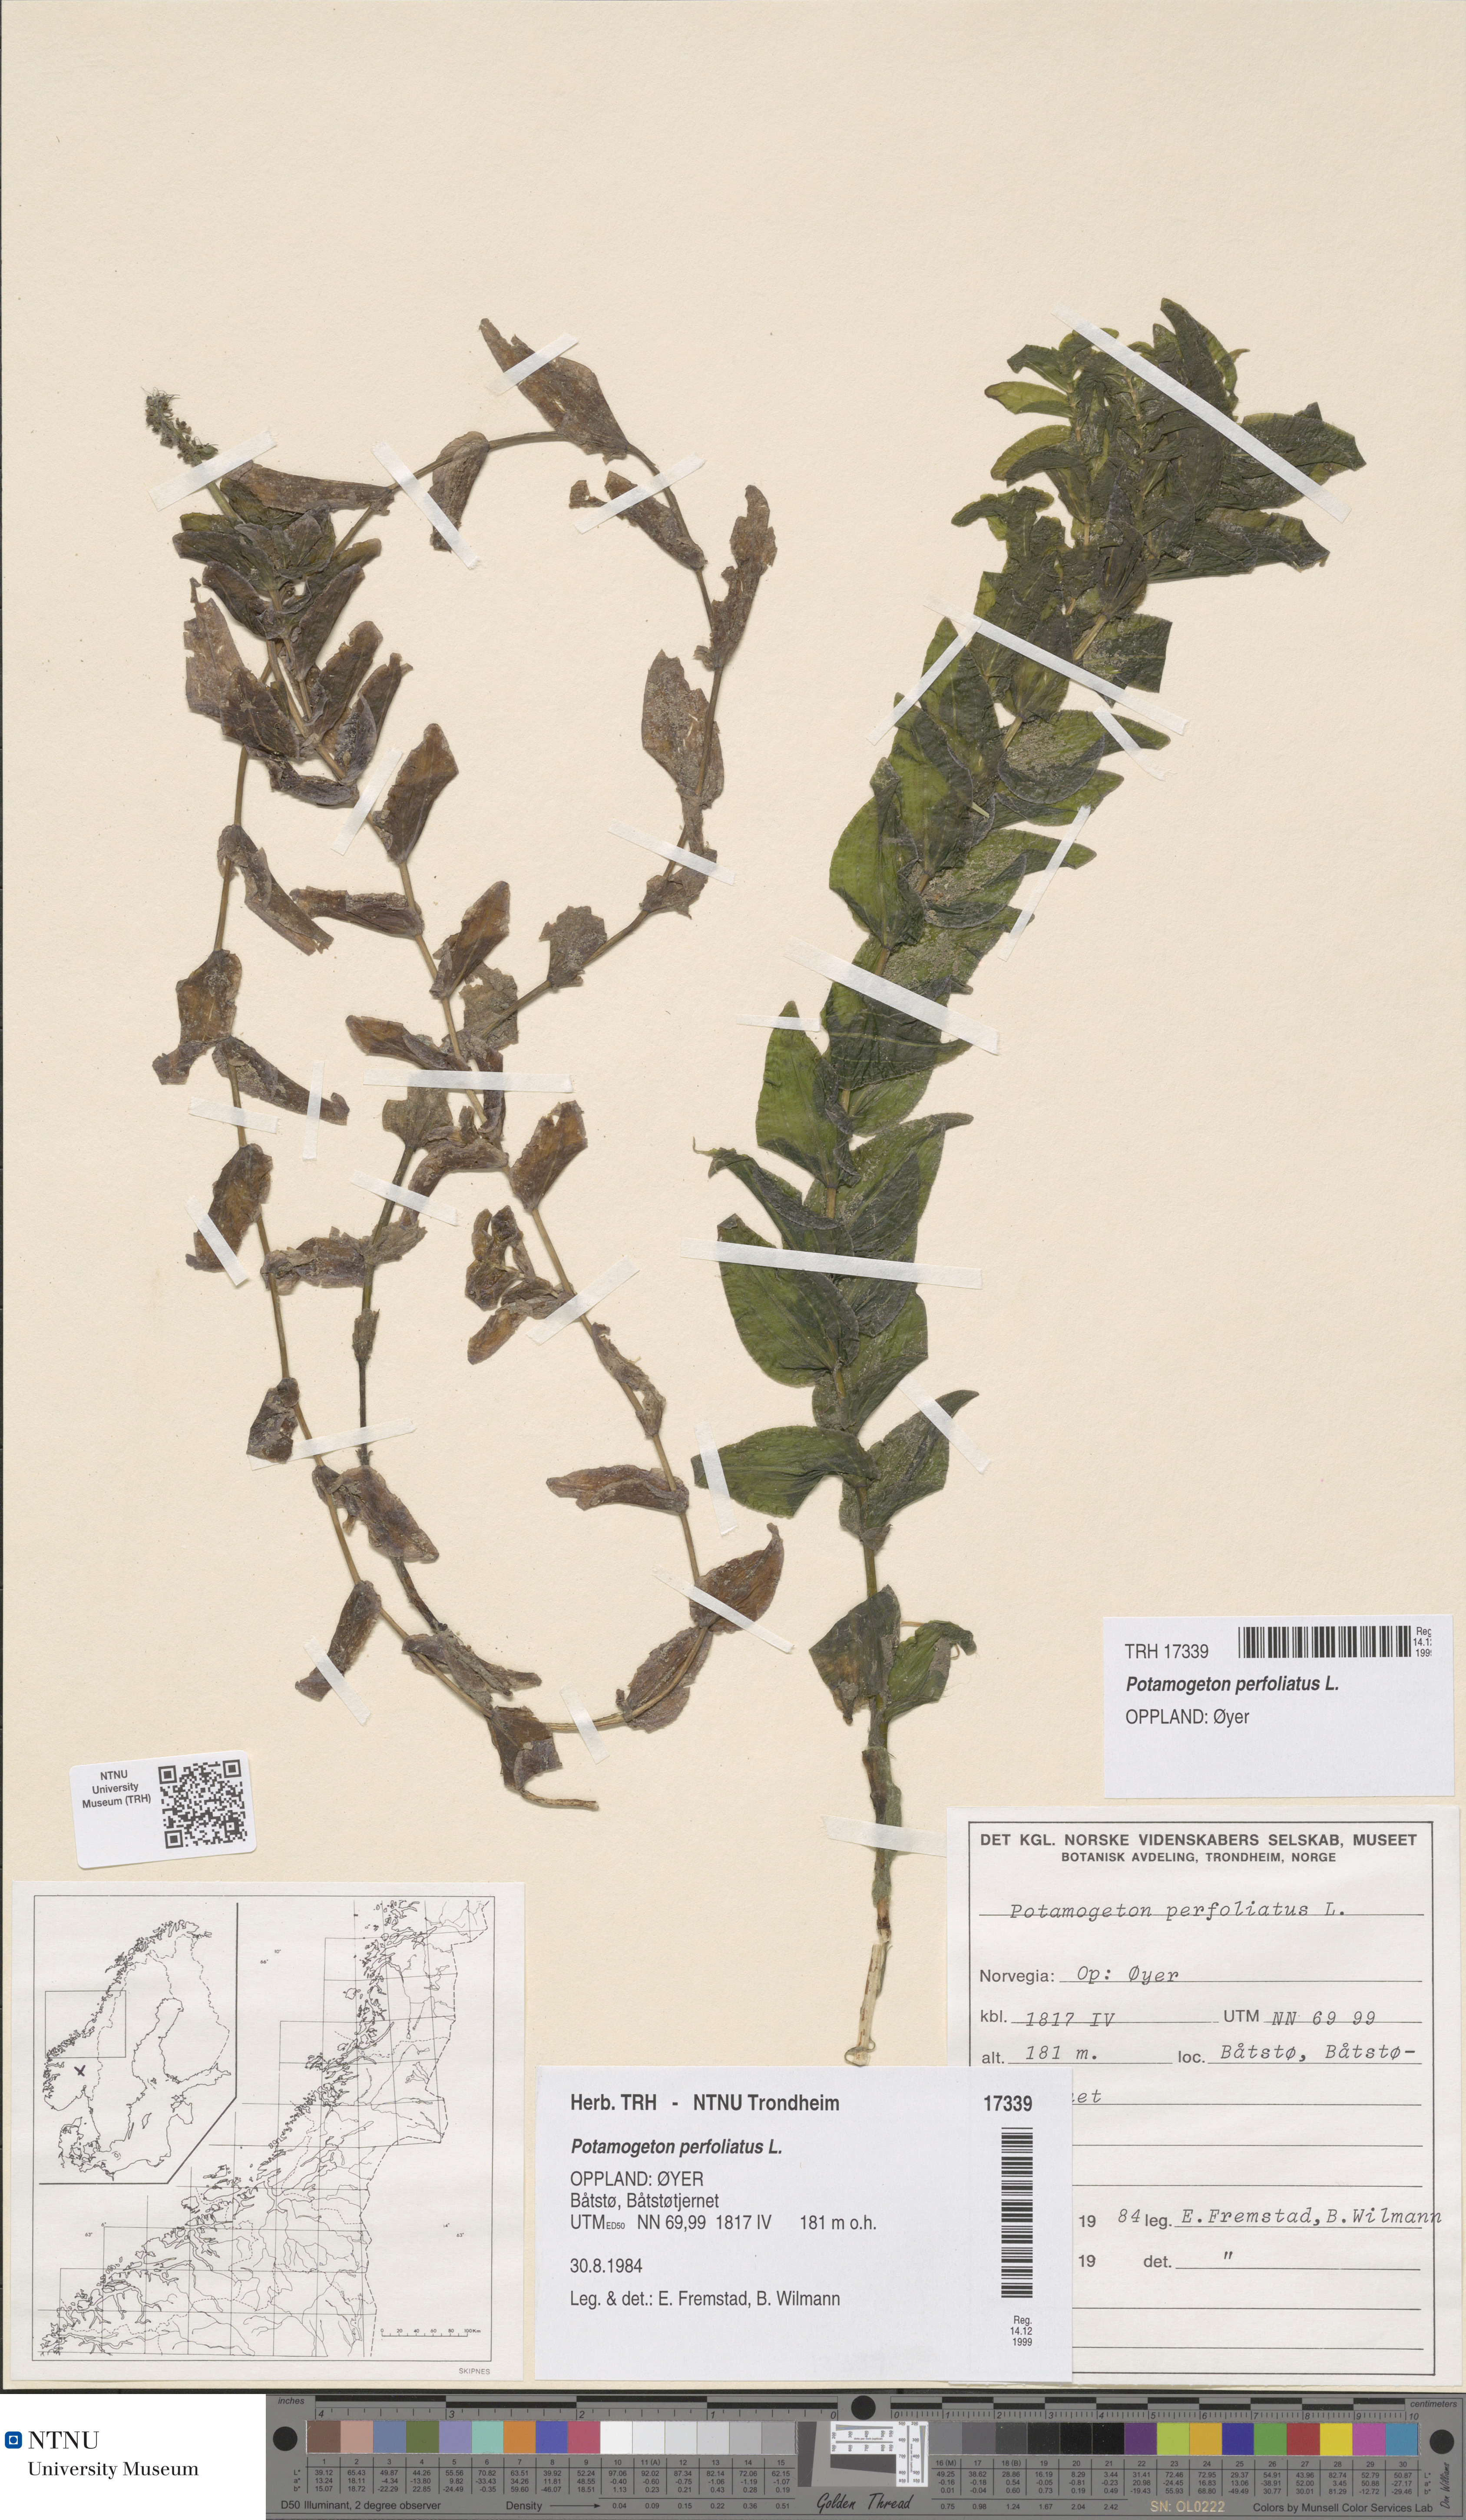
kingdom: Plantae
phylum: Tracheophyta
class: Liliopsida
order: Alismatales
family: Potamogetonaceae
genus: Potamogeton
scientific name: Potamogeton perfoliatus
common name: Perfoliate pondweed
